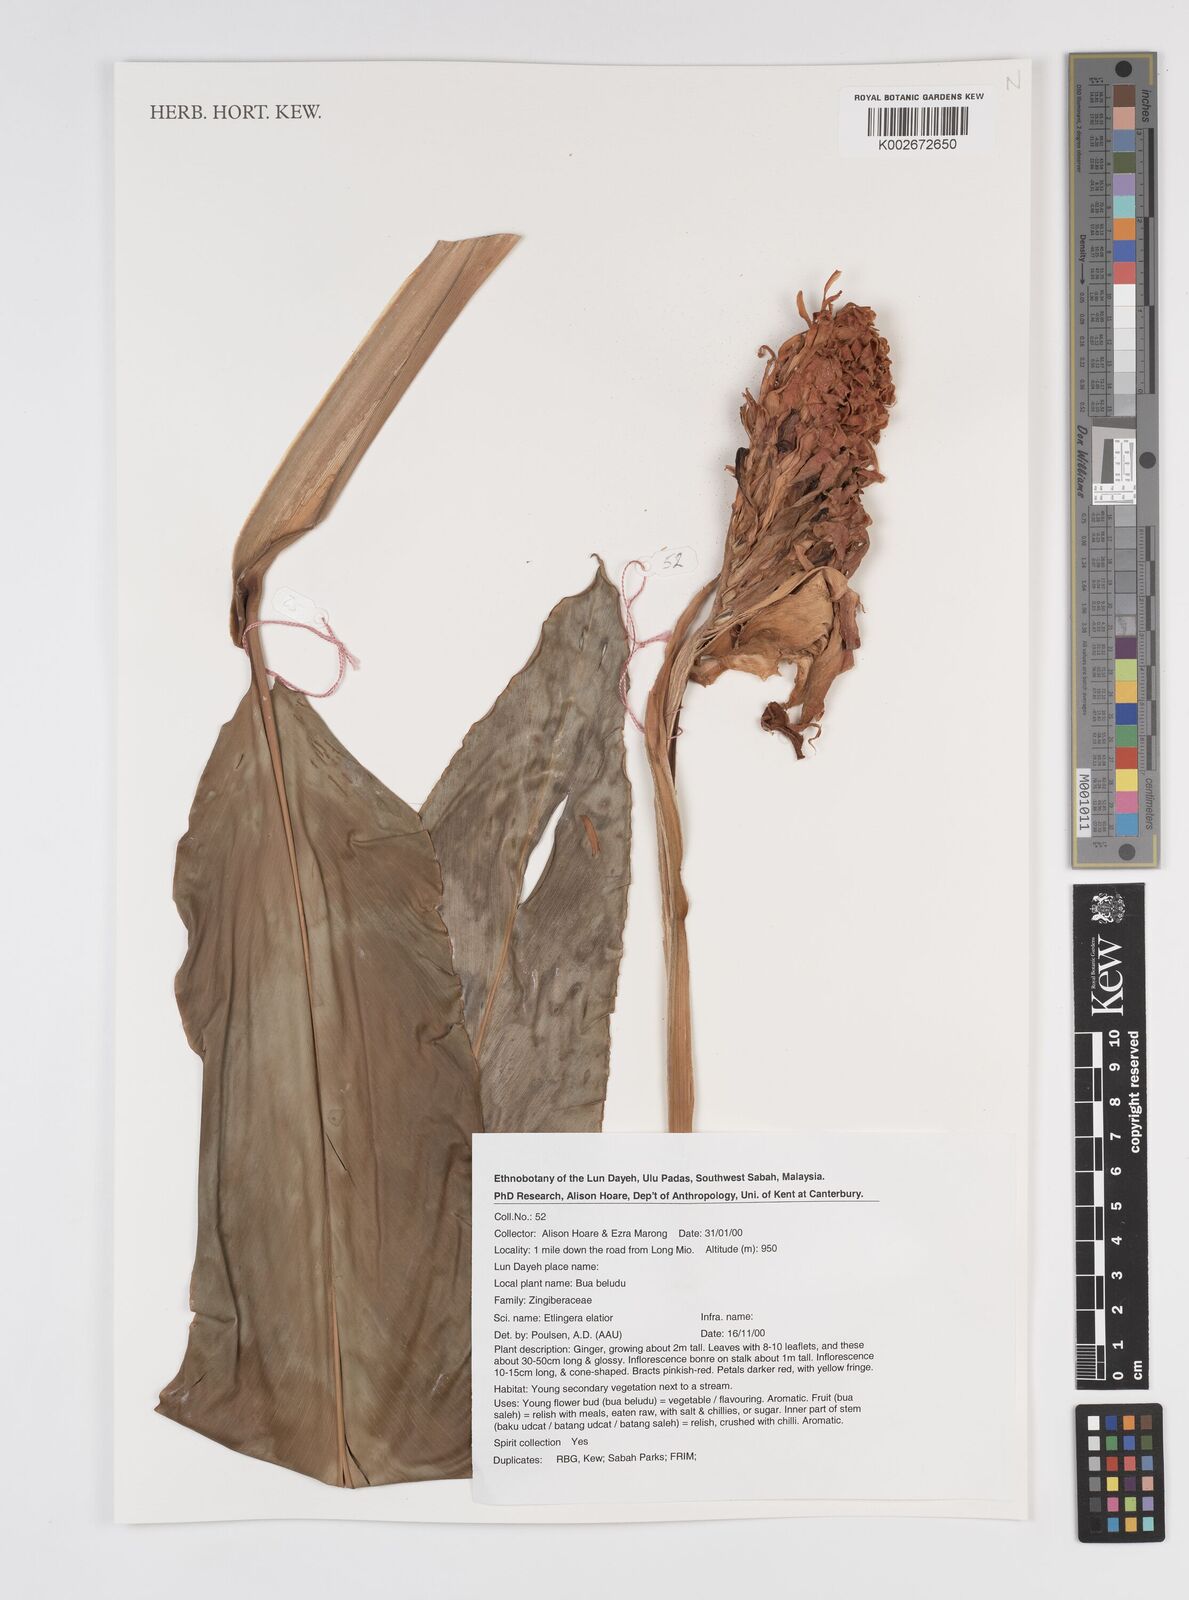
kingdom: Plantae
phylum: Tracheophyta
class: Liliopsida
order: Zingiberales
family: Zingiberaceae
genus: Etlingera
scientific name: Etlingera elatior
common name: Philippine waxflower
